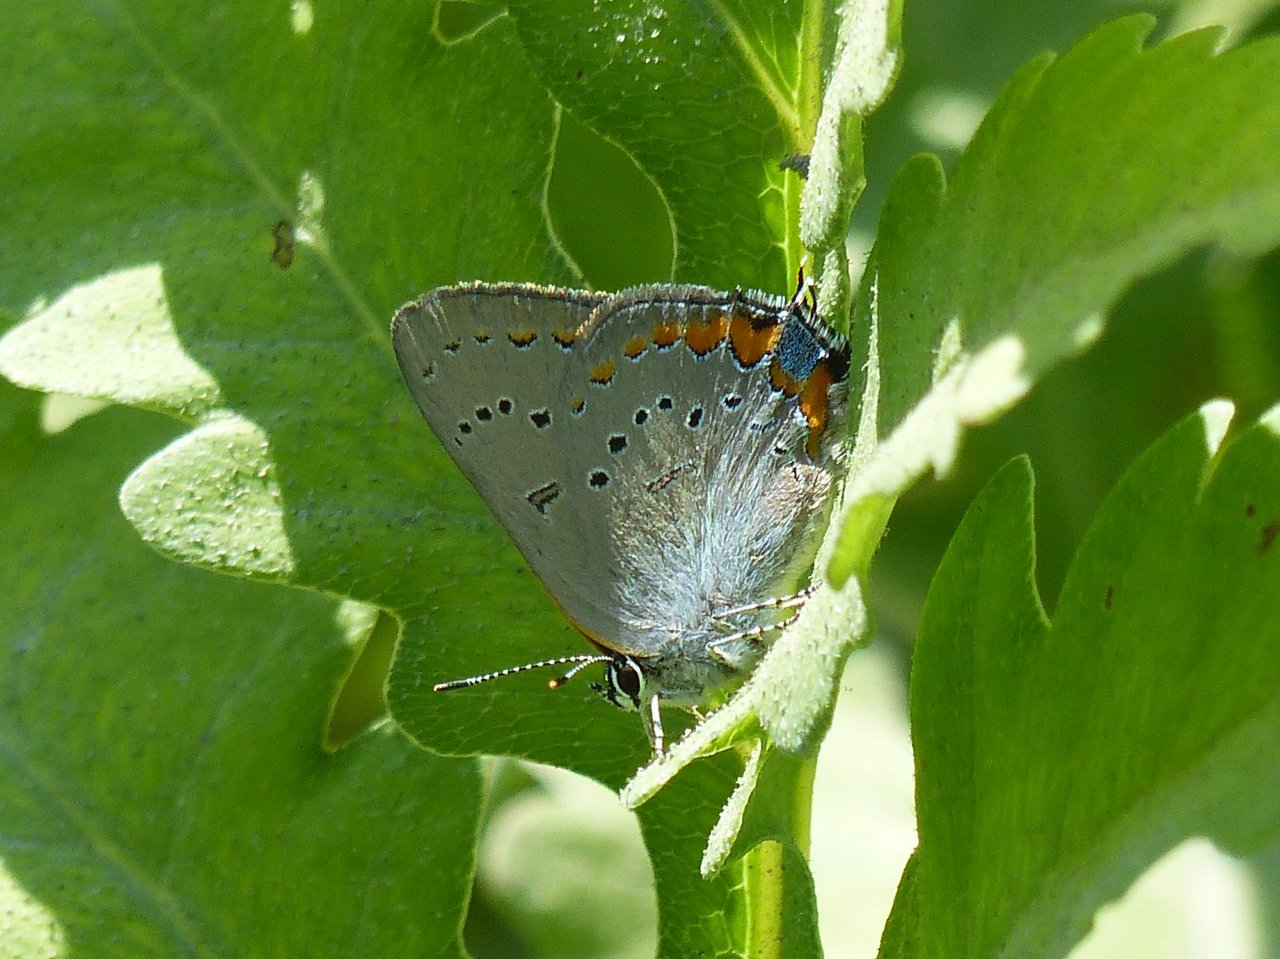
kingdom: Animalia
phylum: Arthropoda
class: Insecta
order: Lepidoptera
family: Lycaenidae
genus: Strymon
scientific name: Strymon acadica
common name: Acadian Hairstreak
